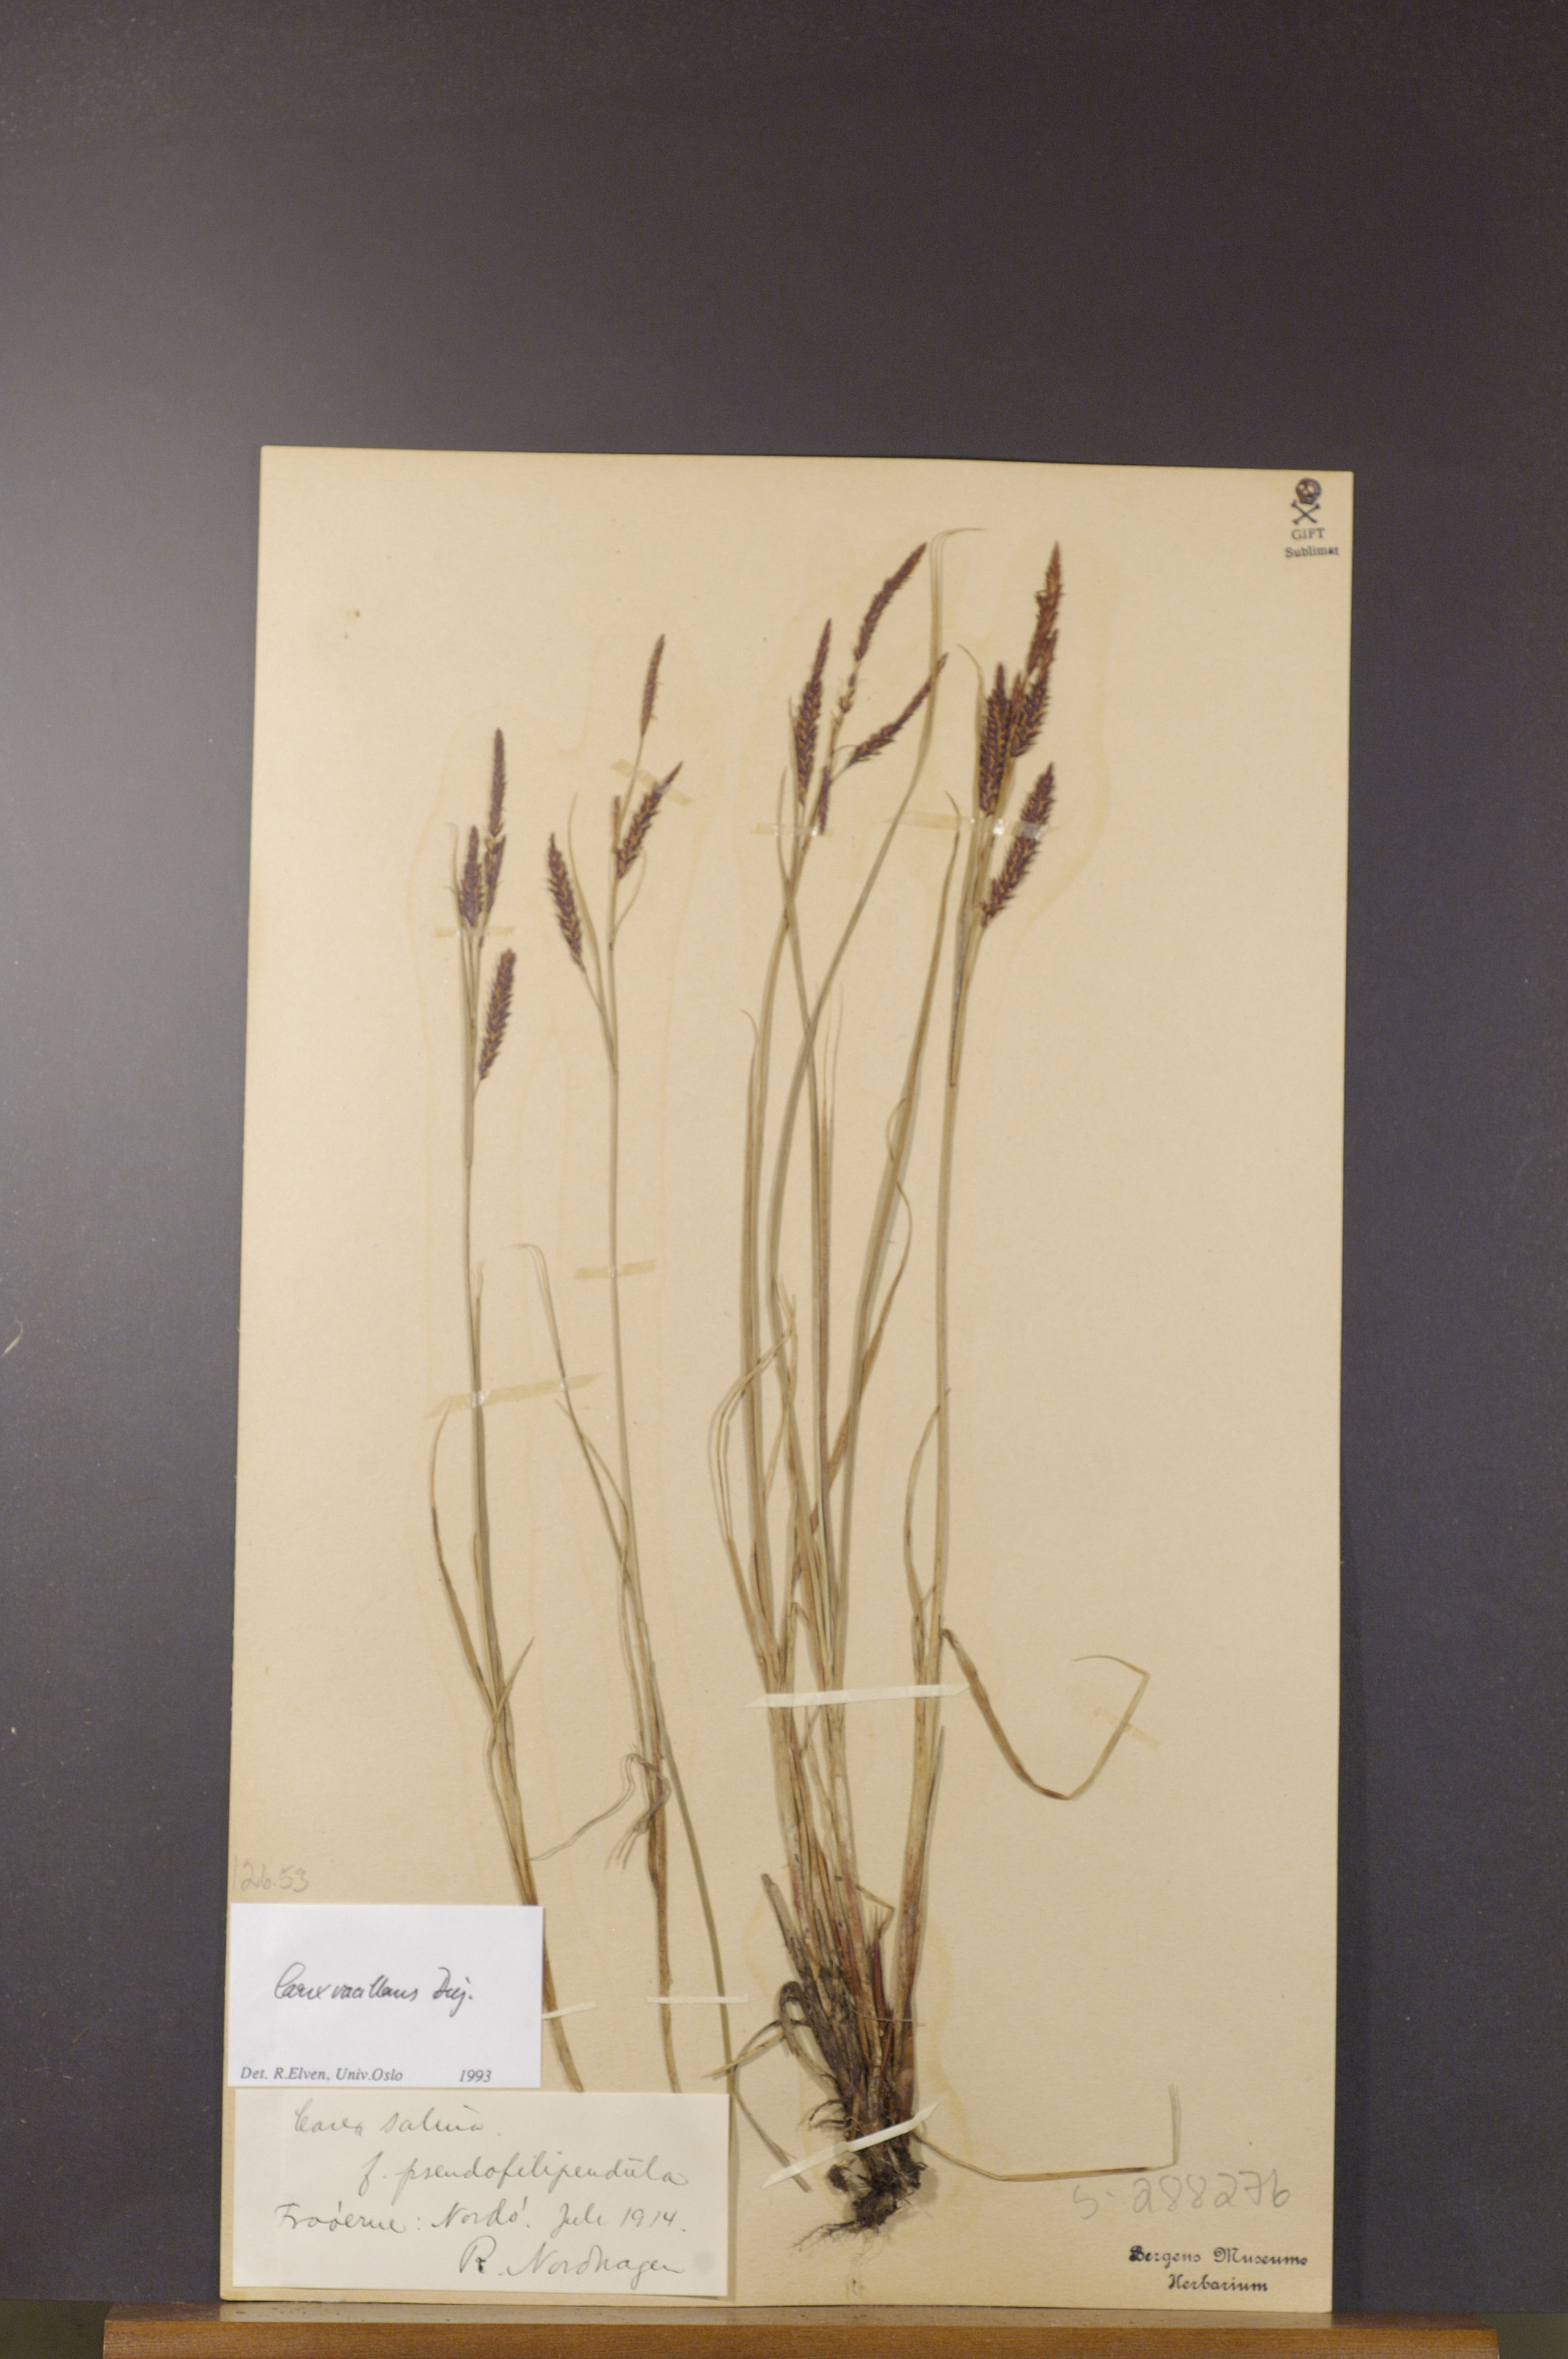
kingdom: Plantae
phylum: Tracheophyta
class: Liliopsida
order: Poales
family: Cyperaceae
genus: Carex
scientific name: Carex vacillans
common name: Sedge
